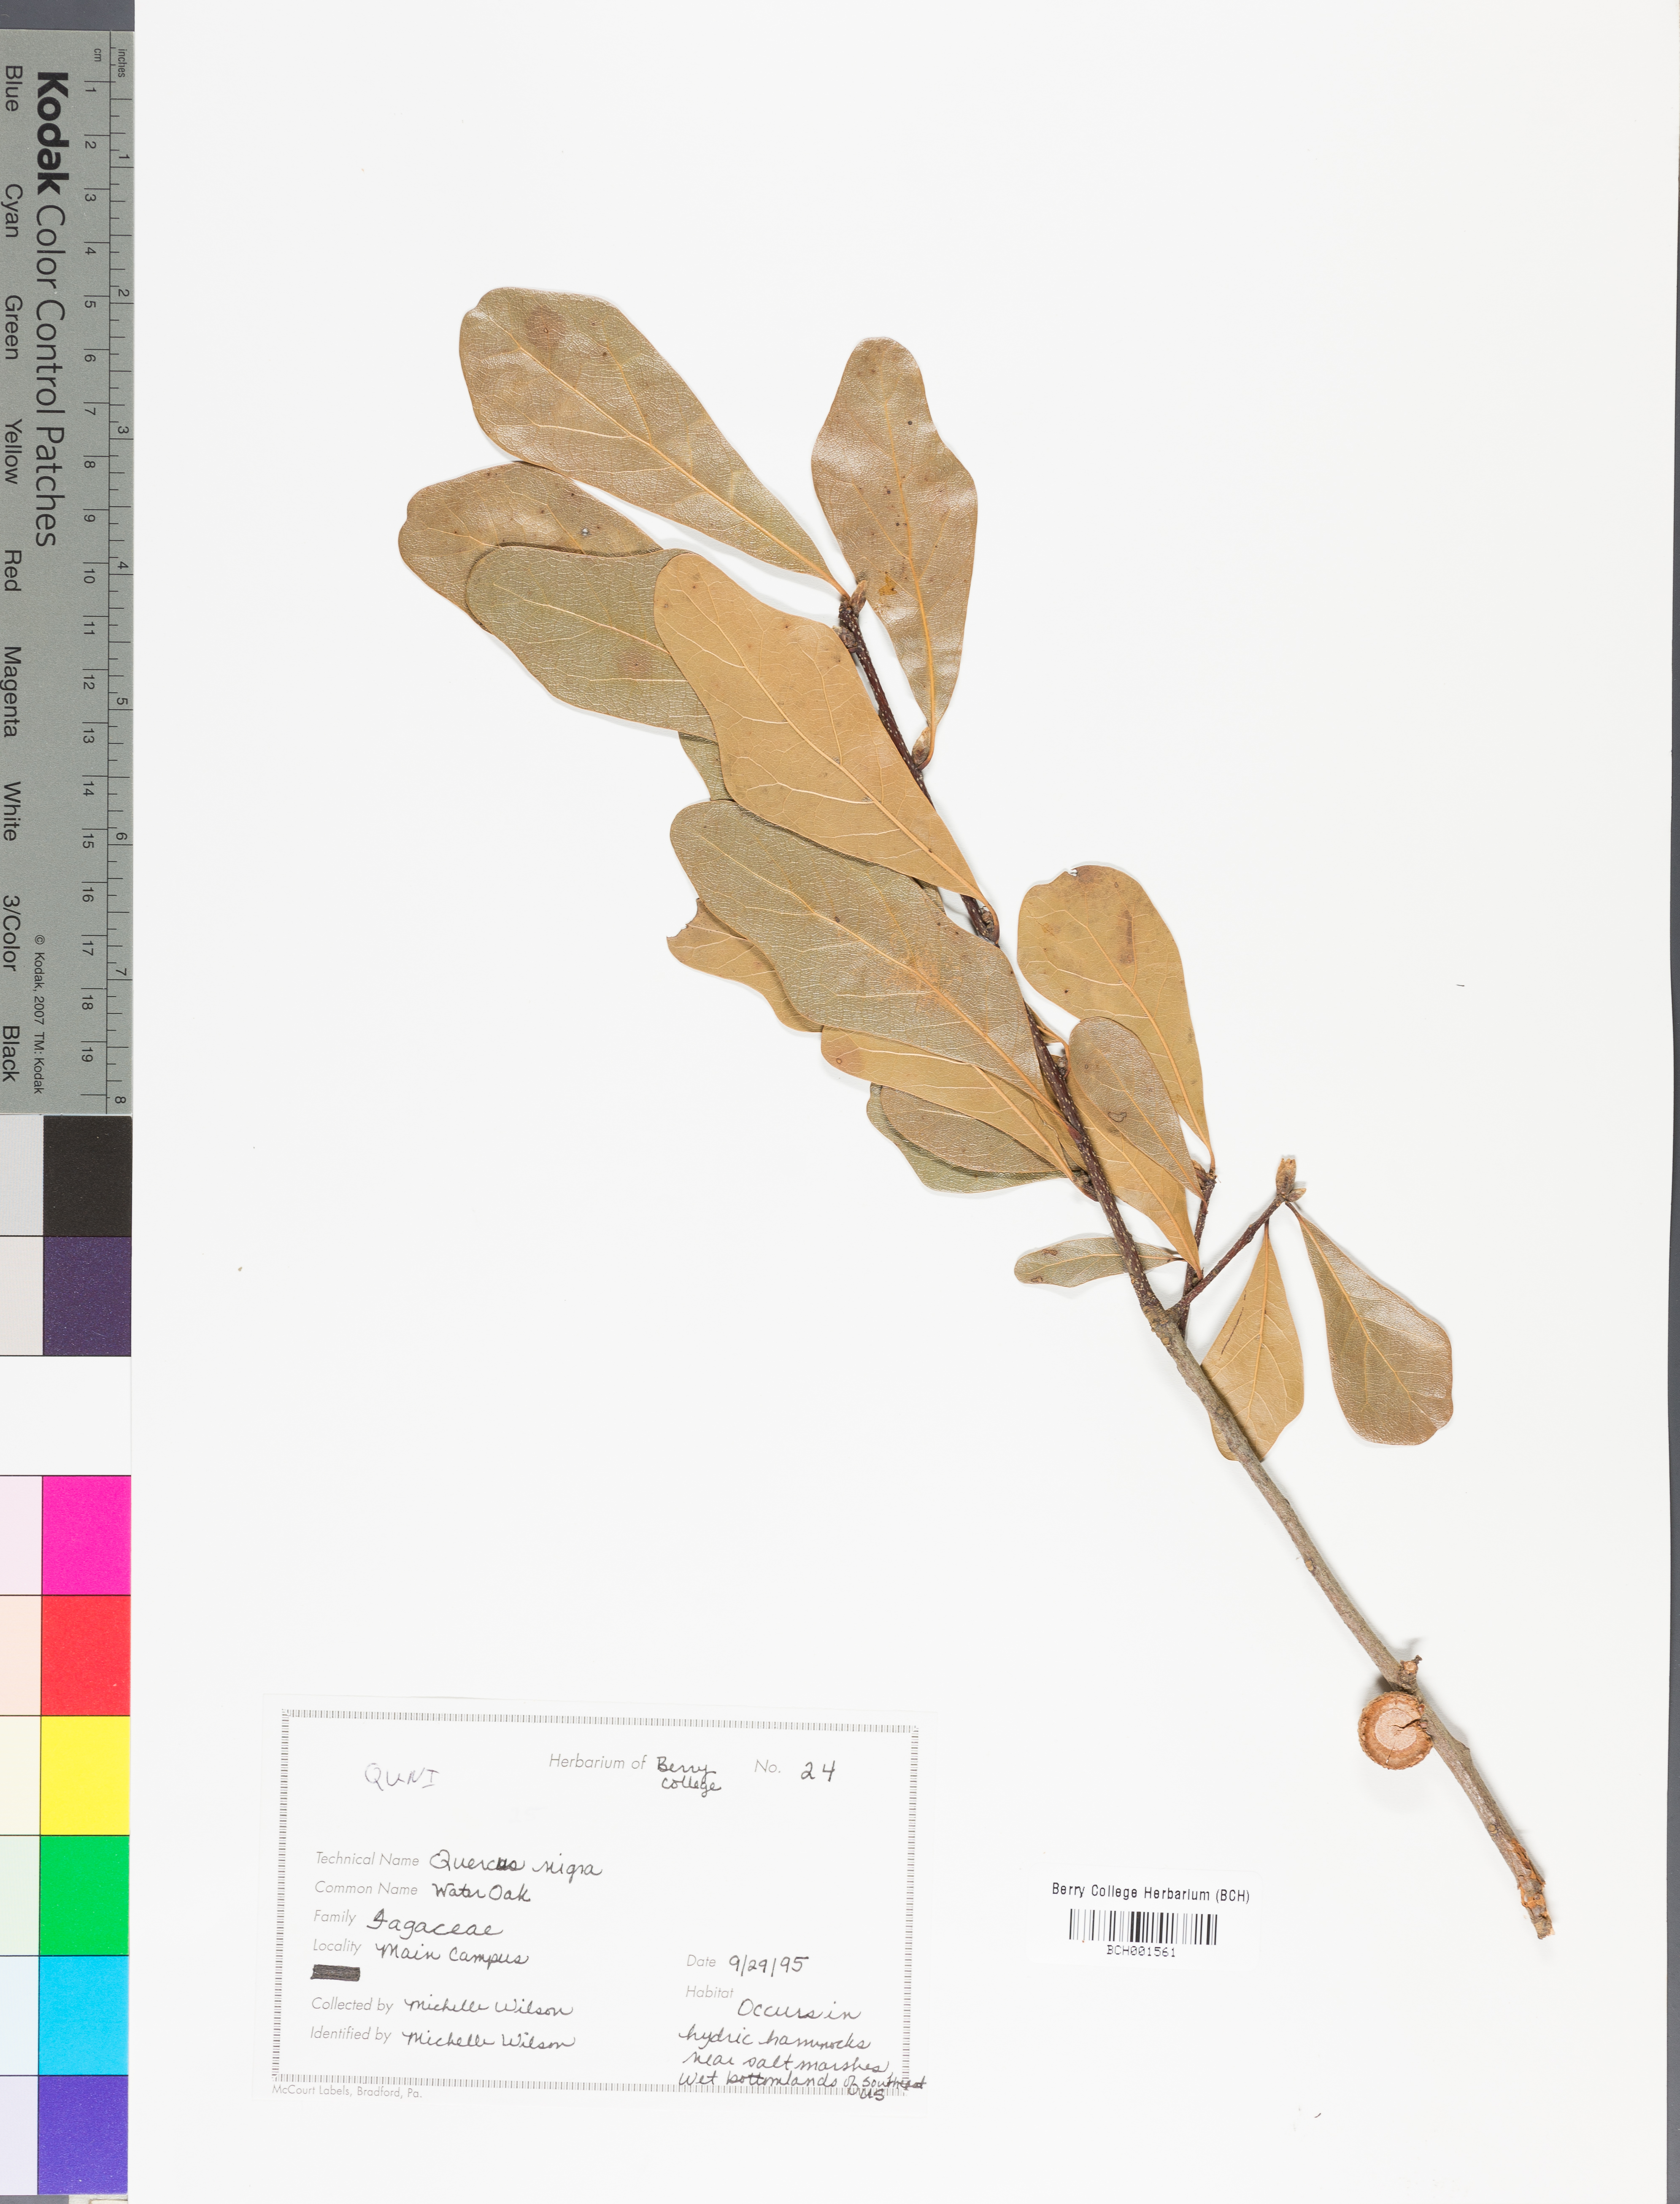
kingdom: Plantae
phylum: Tracheophyta
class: Magnoliopsida
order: Fagales
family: Fagaceae
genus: Quercus
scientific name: Quercus nigra
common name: Water oak
